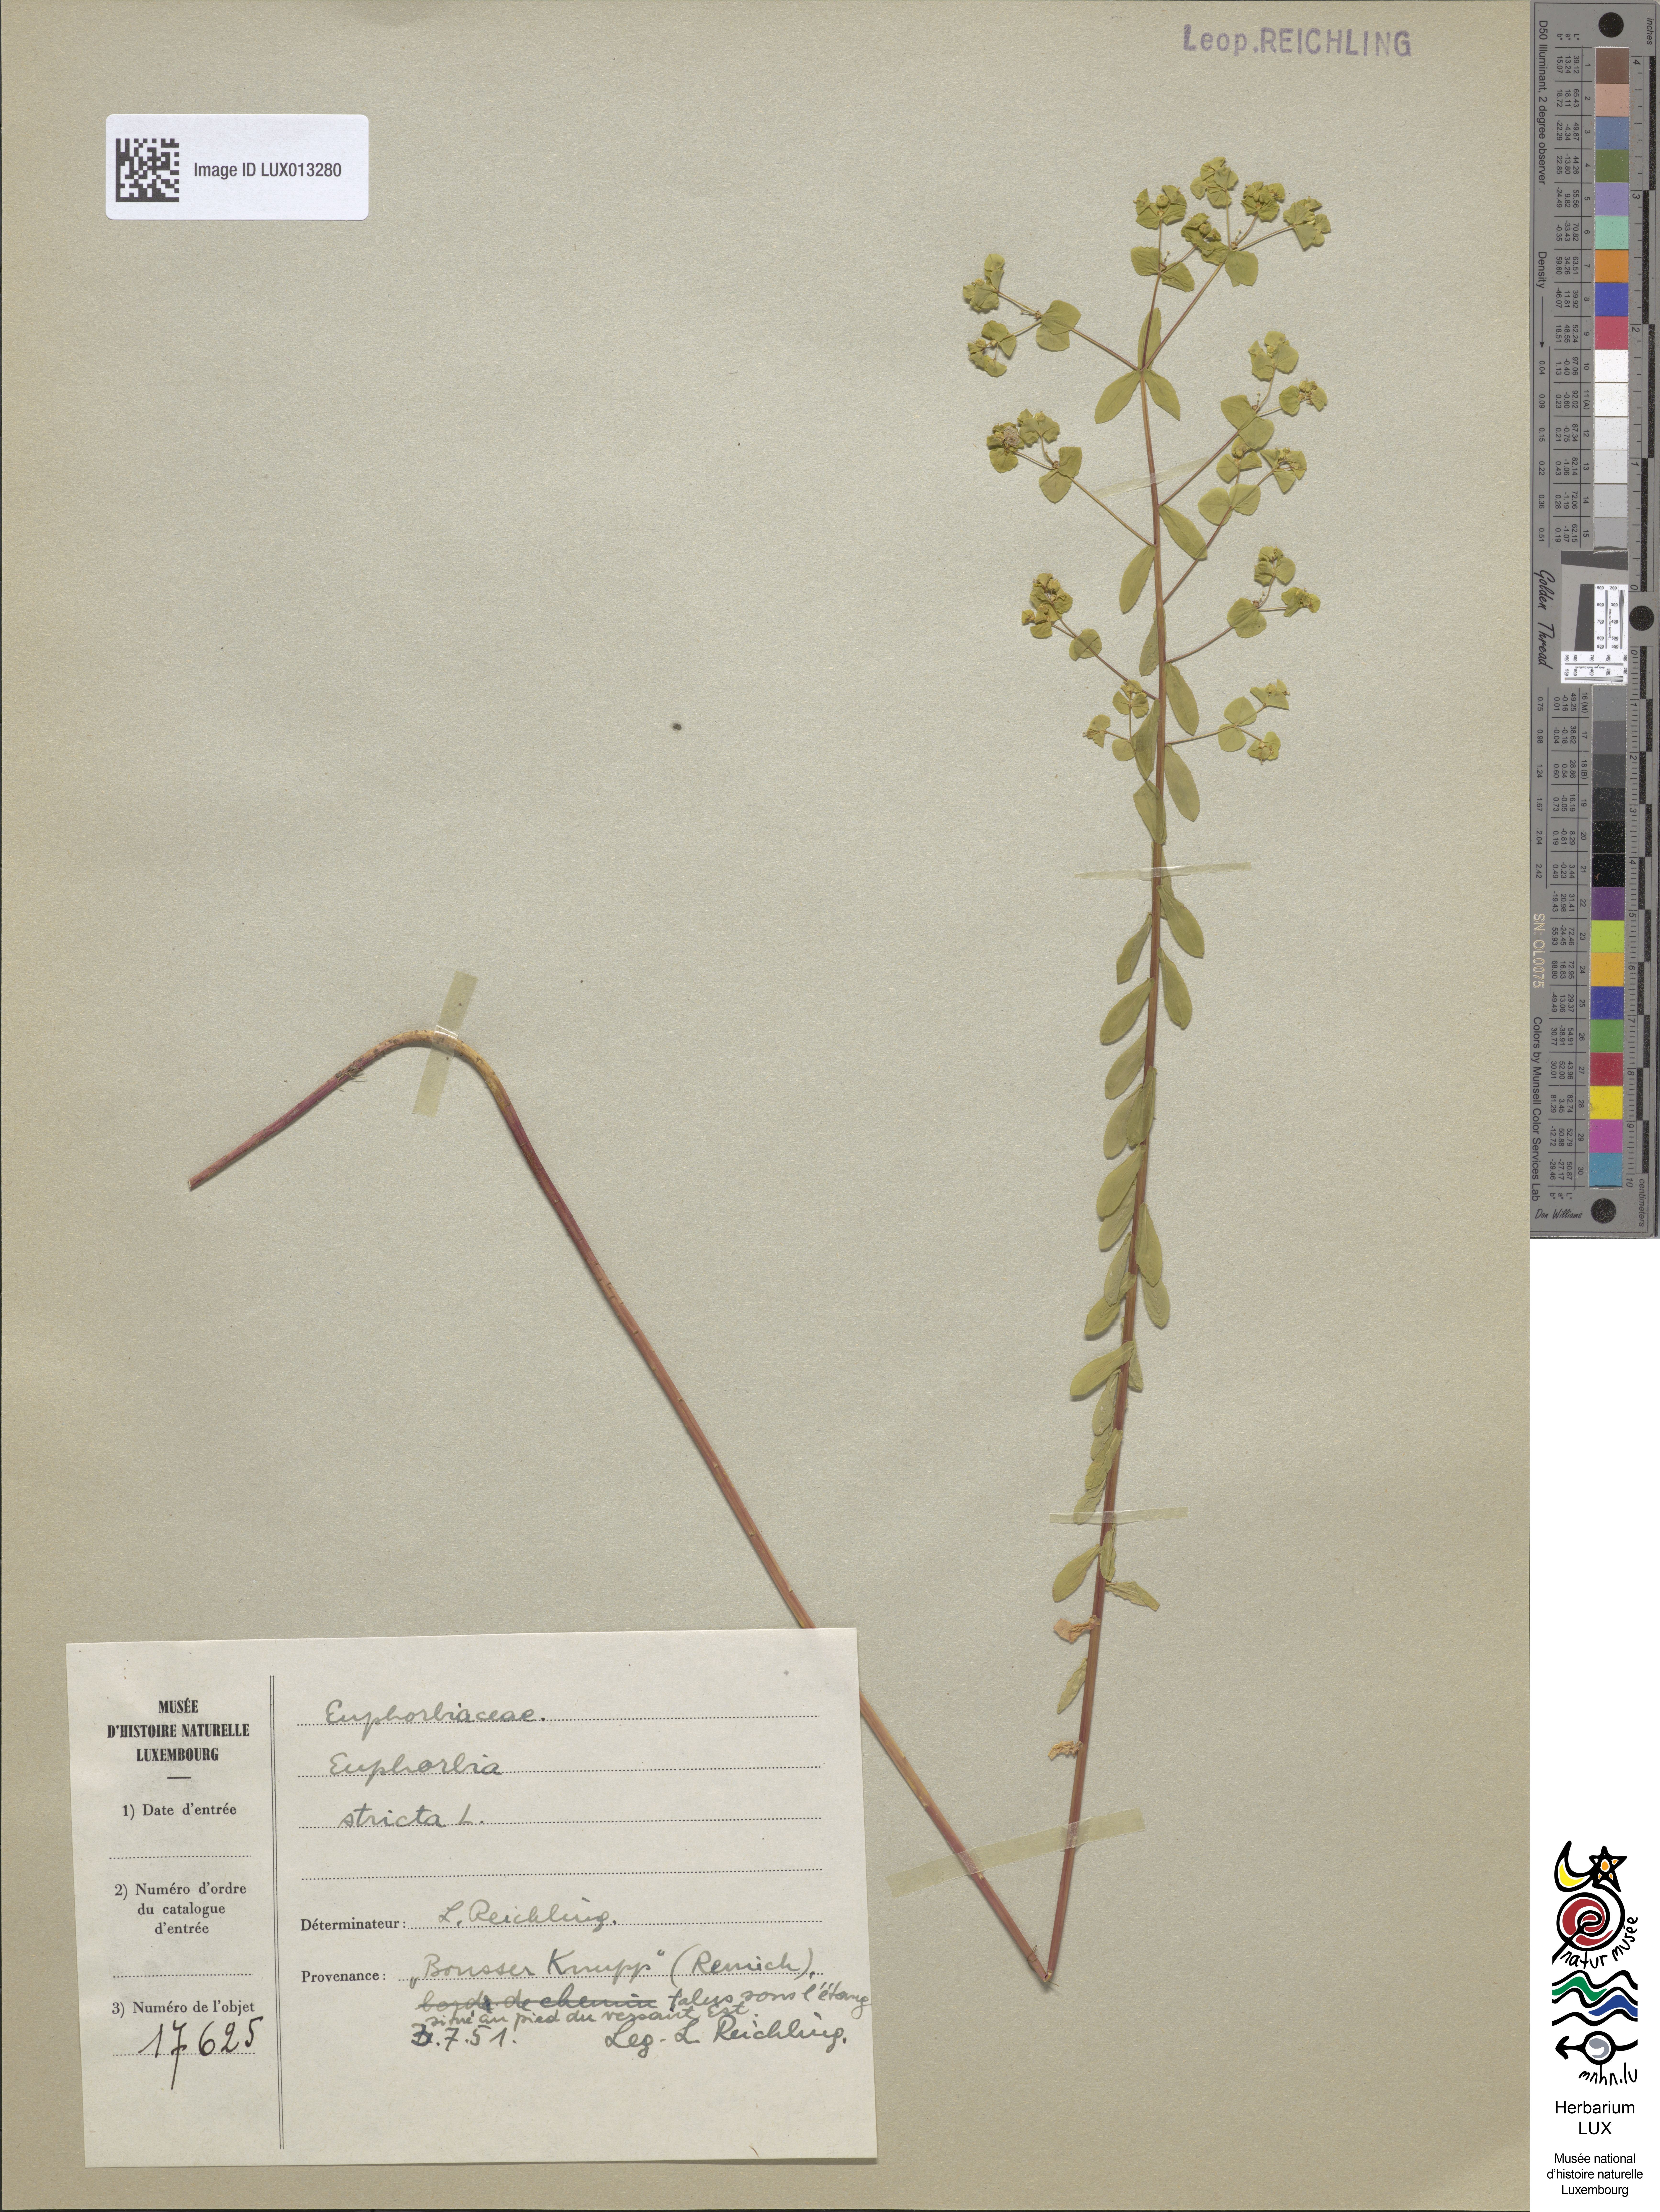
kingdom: Plantae
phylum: Tracheophyta
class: Magnoliopsida
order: Malpighiales
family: Euphorbiaceae
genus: Euphorbia
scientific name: Euphorbia stricta
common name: Upright spurge
